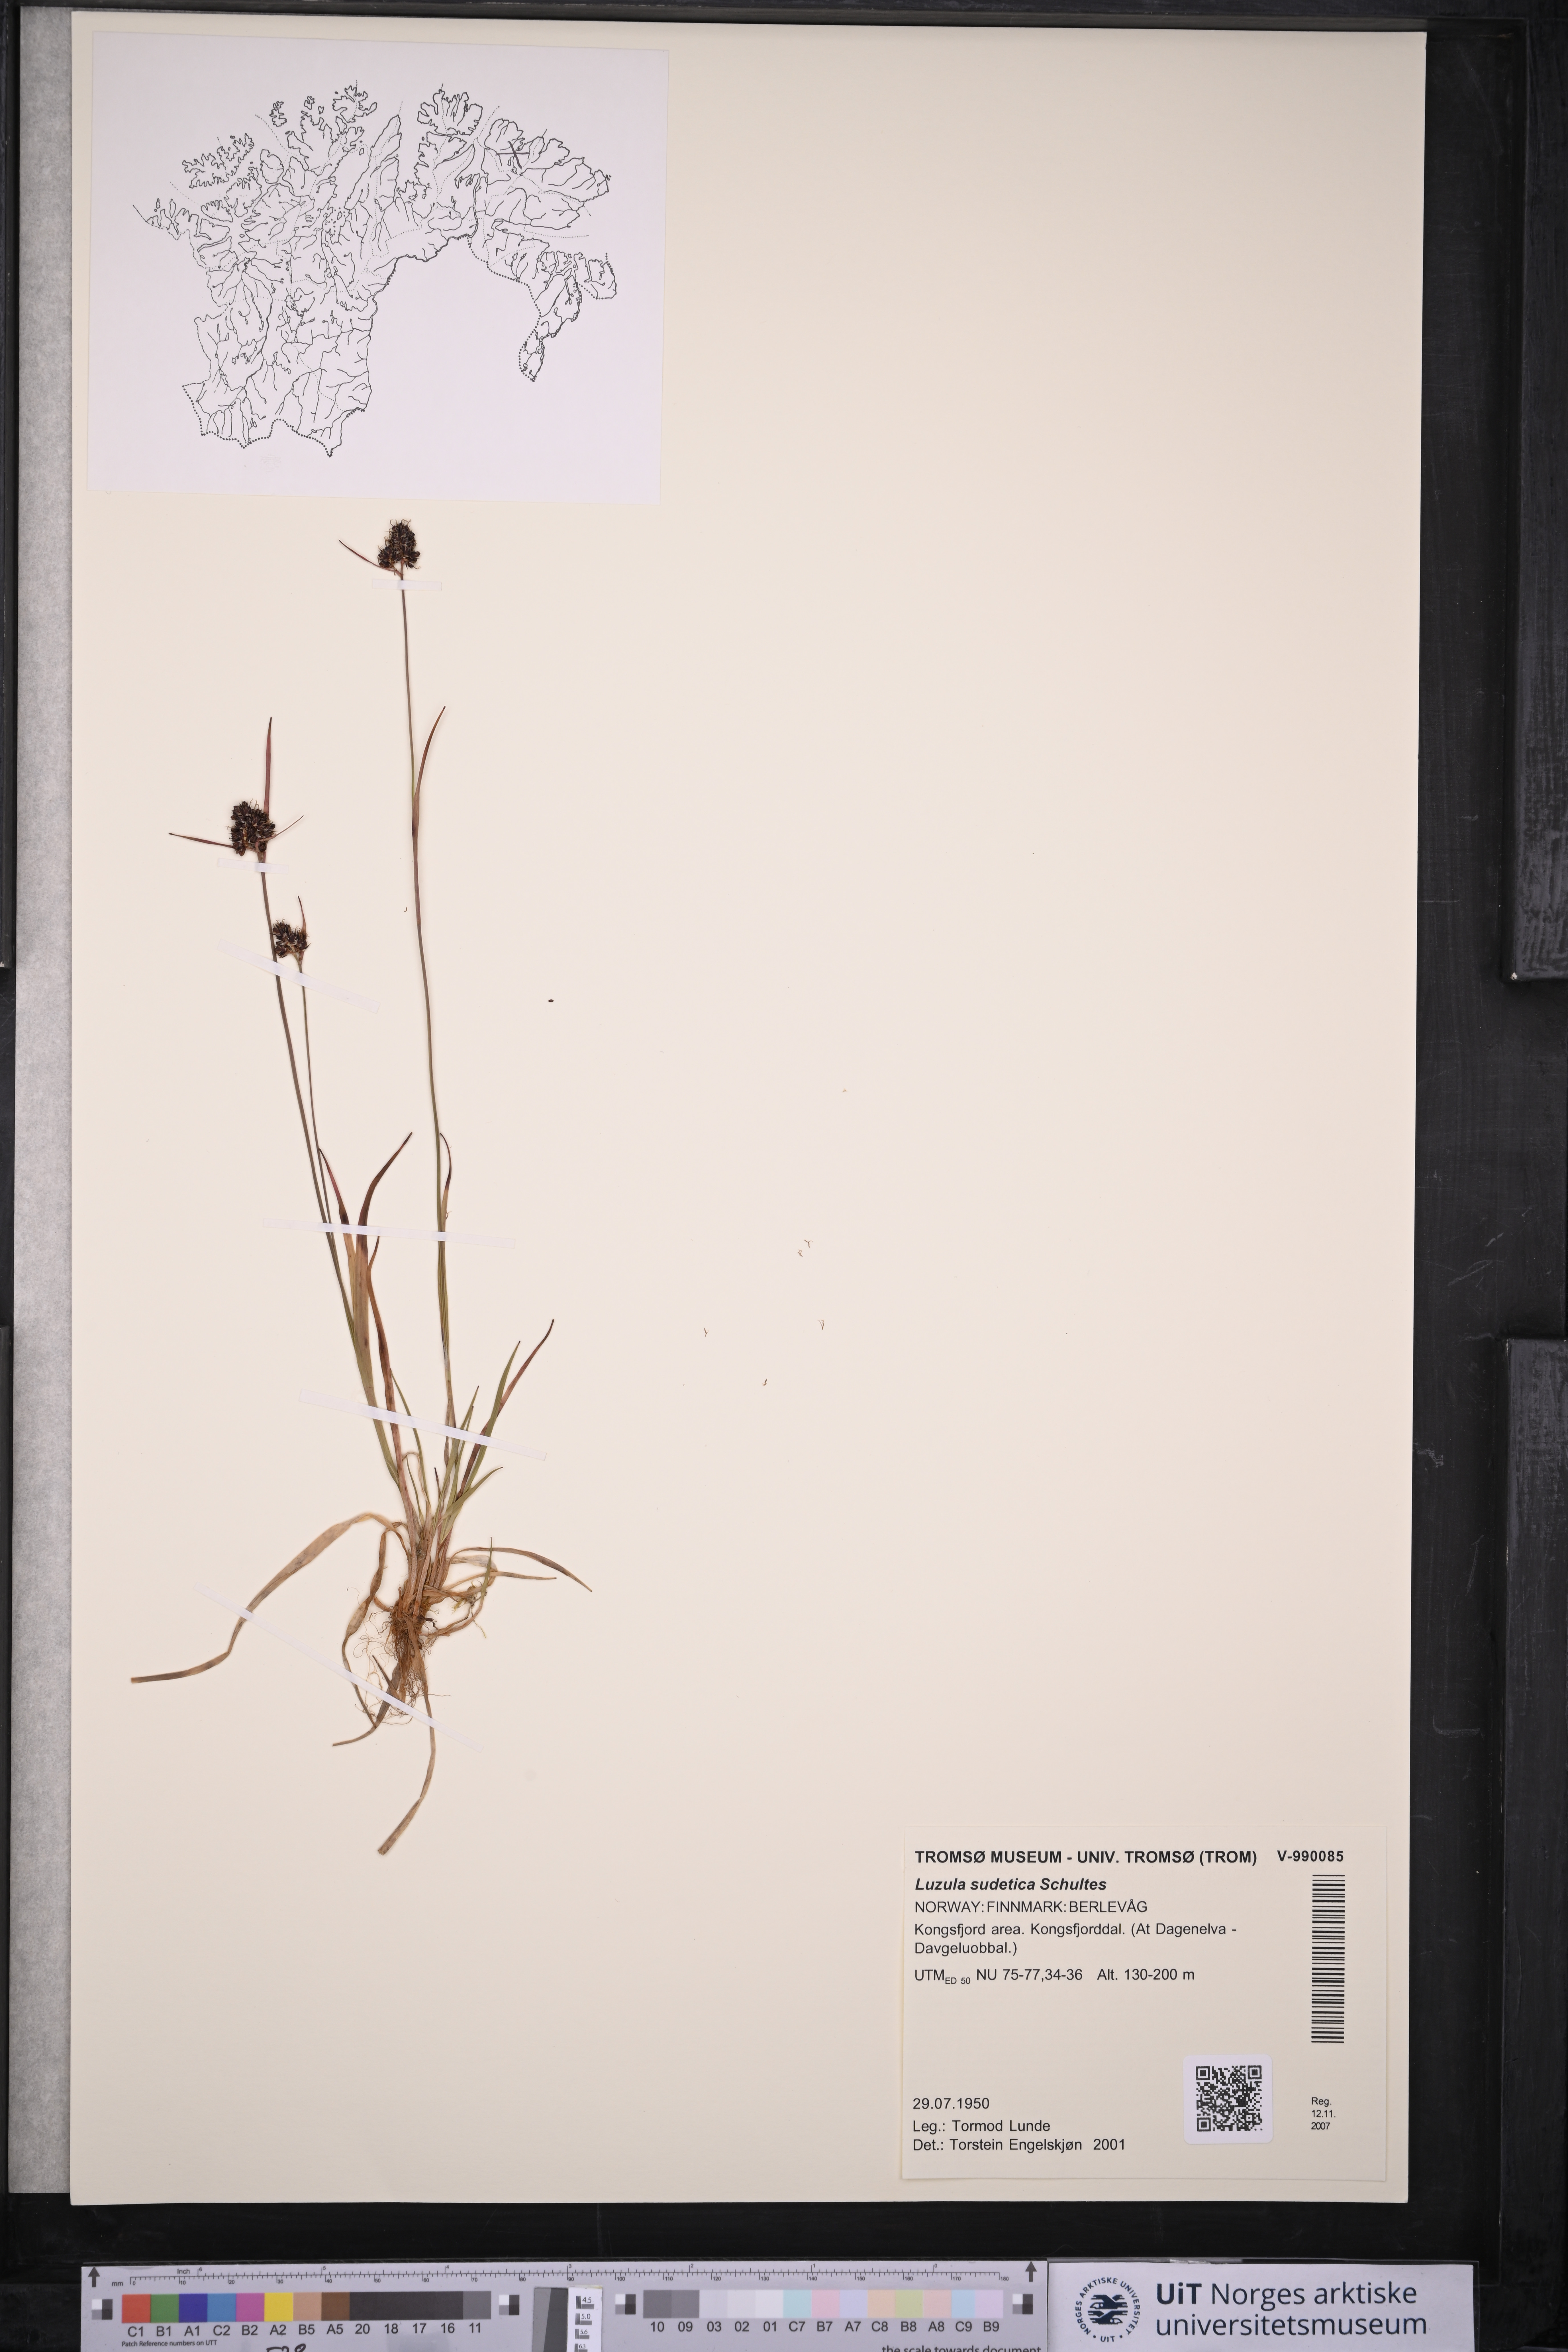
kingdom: Plantae
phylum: Tracheophyta
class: Liliopsida
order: Poales
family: Juncaceae
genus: Luzula
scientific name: Luzula sudetica
